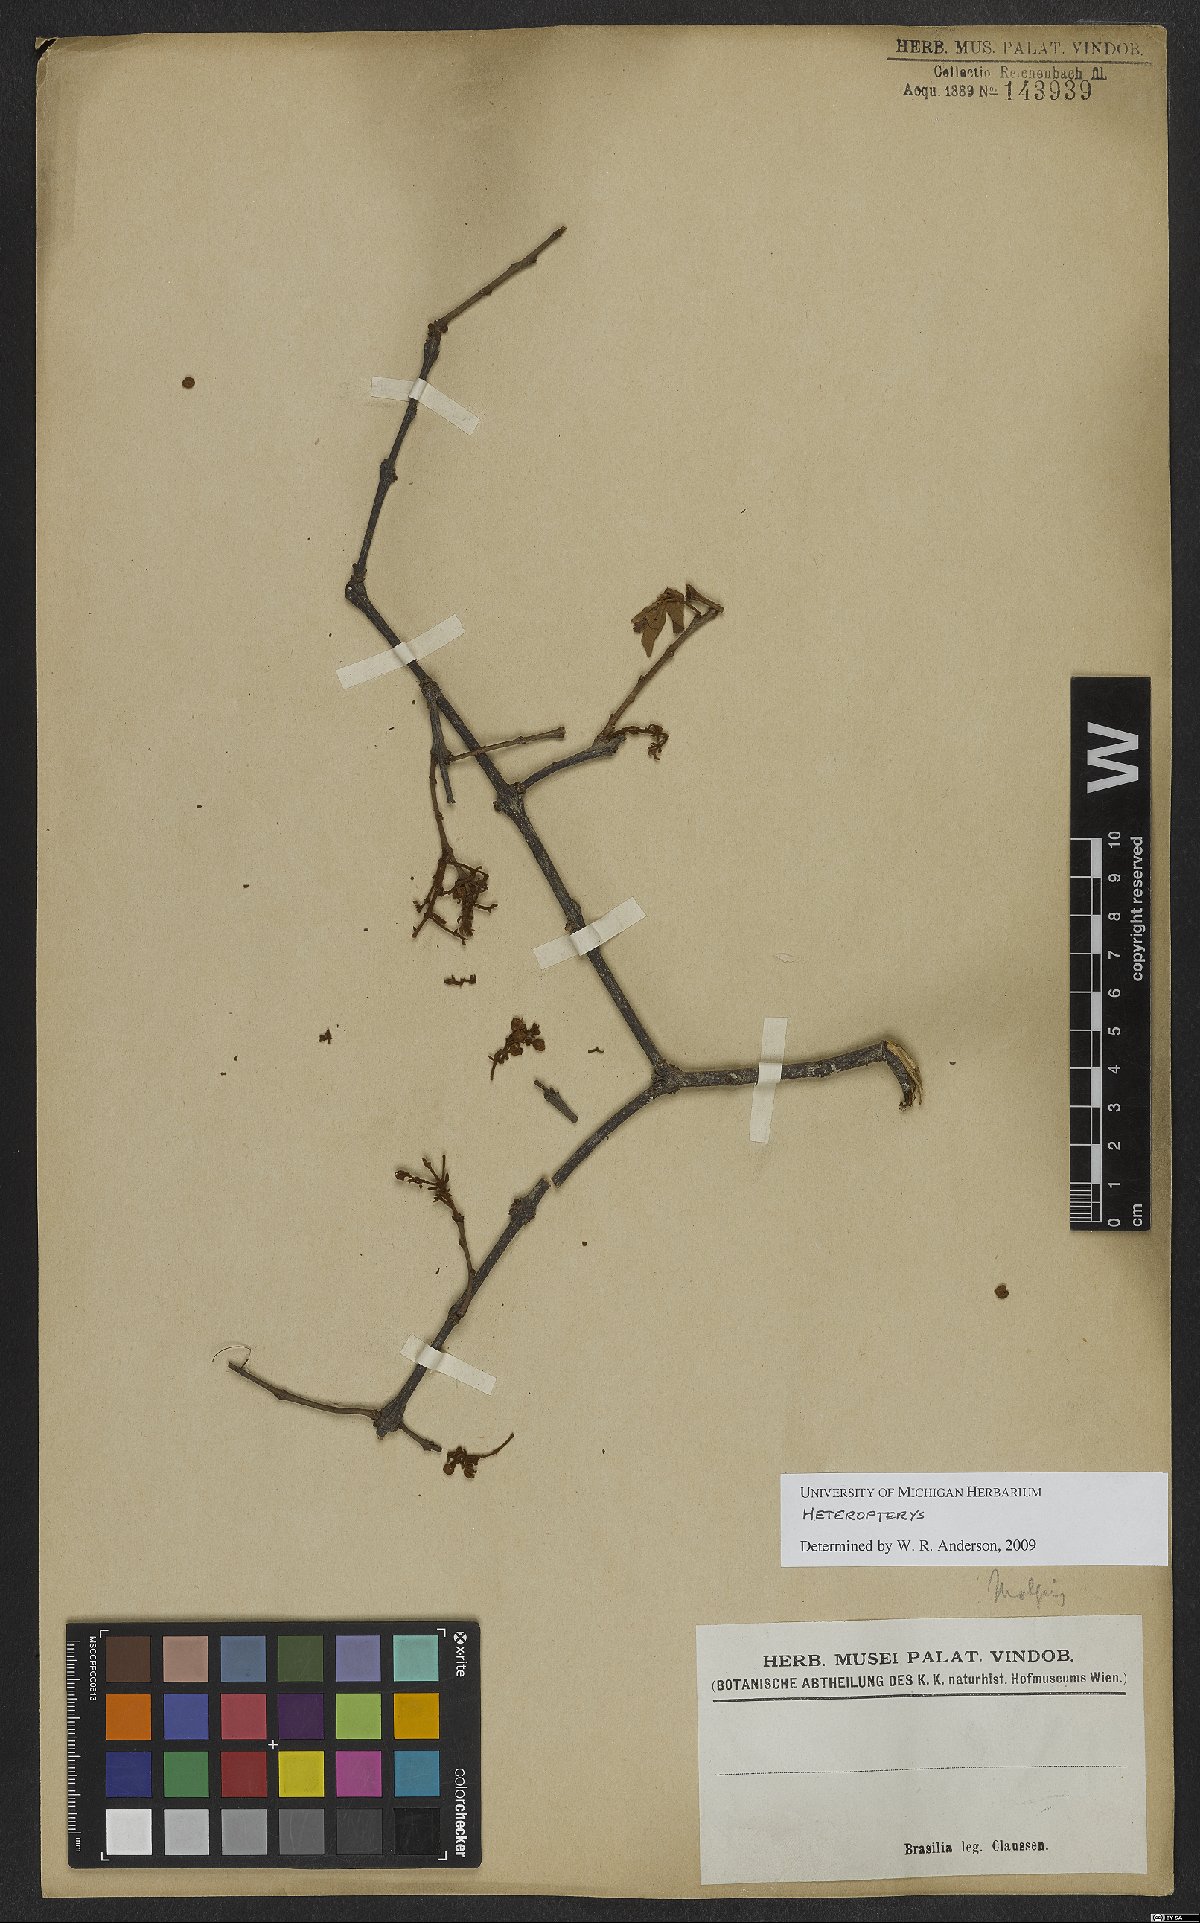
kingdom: Plantae
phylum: Tracheophyta
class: Magnoliopsida
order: Malpighiales
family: Malpighiaceae
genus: Heteropterys
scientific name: Heteropterys
